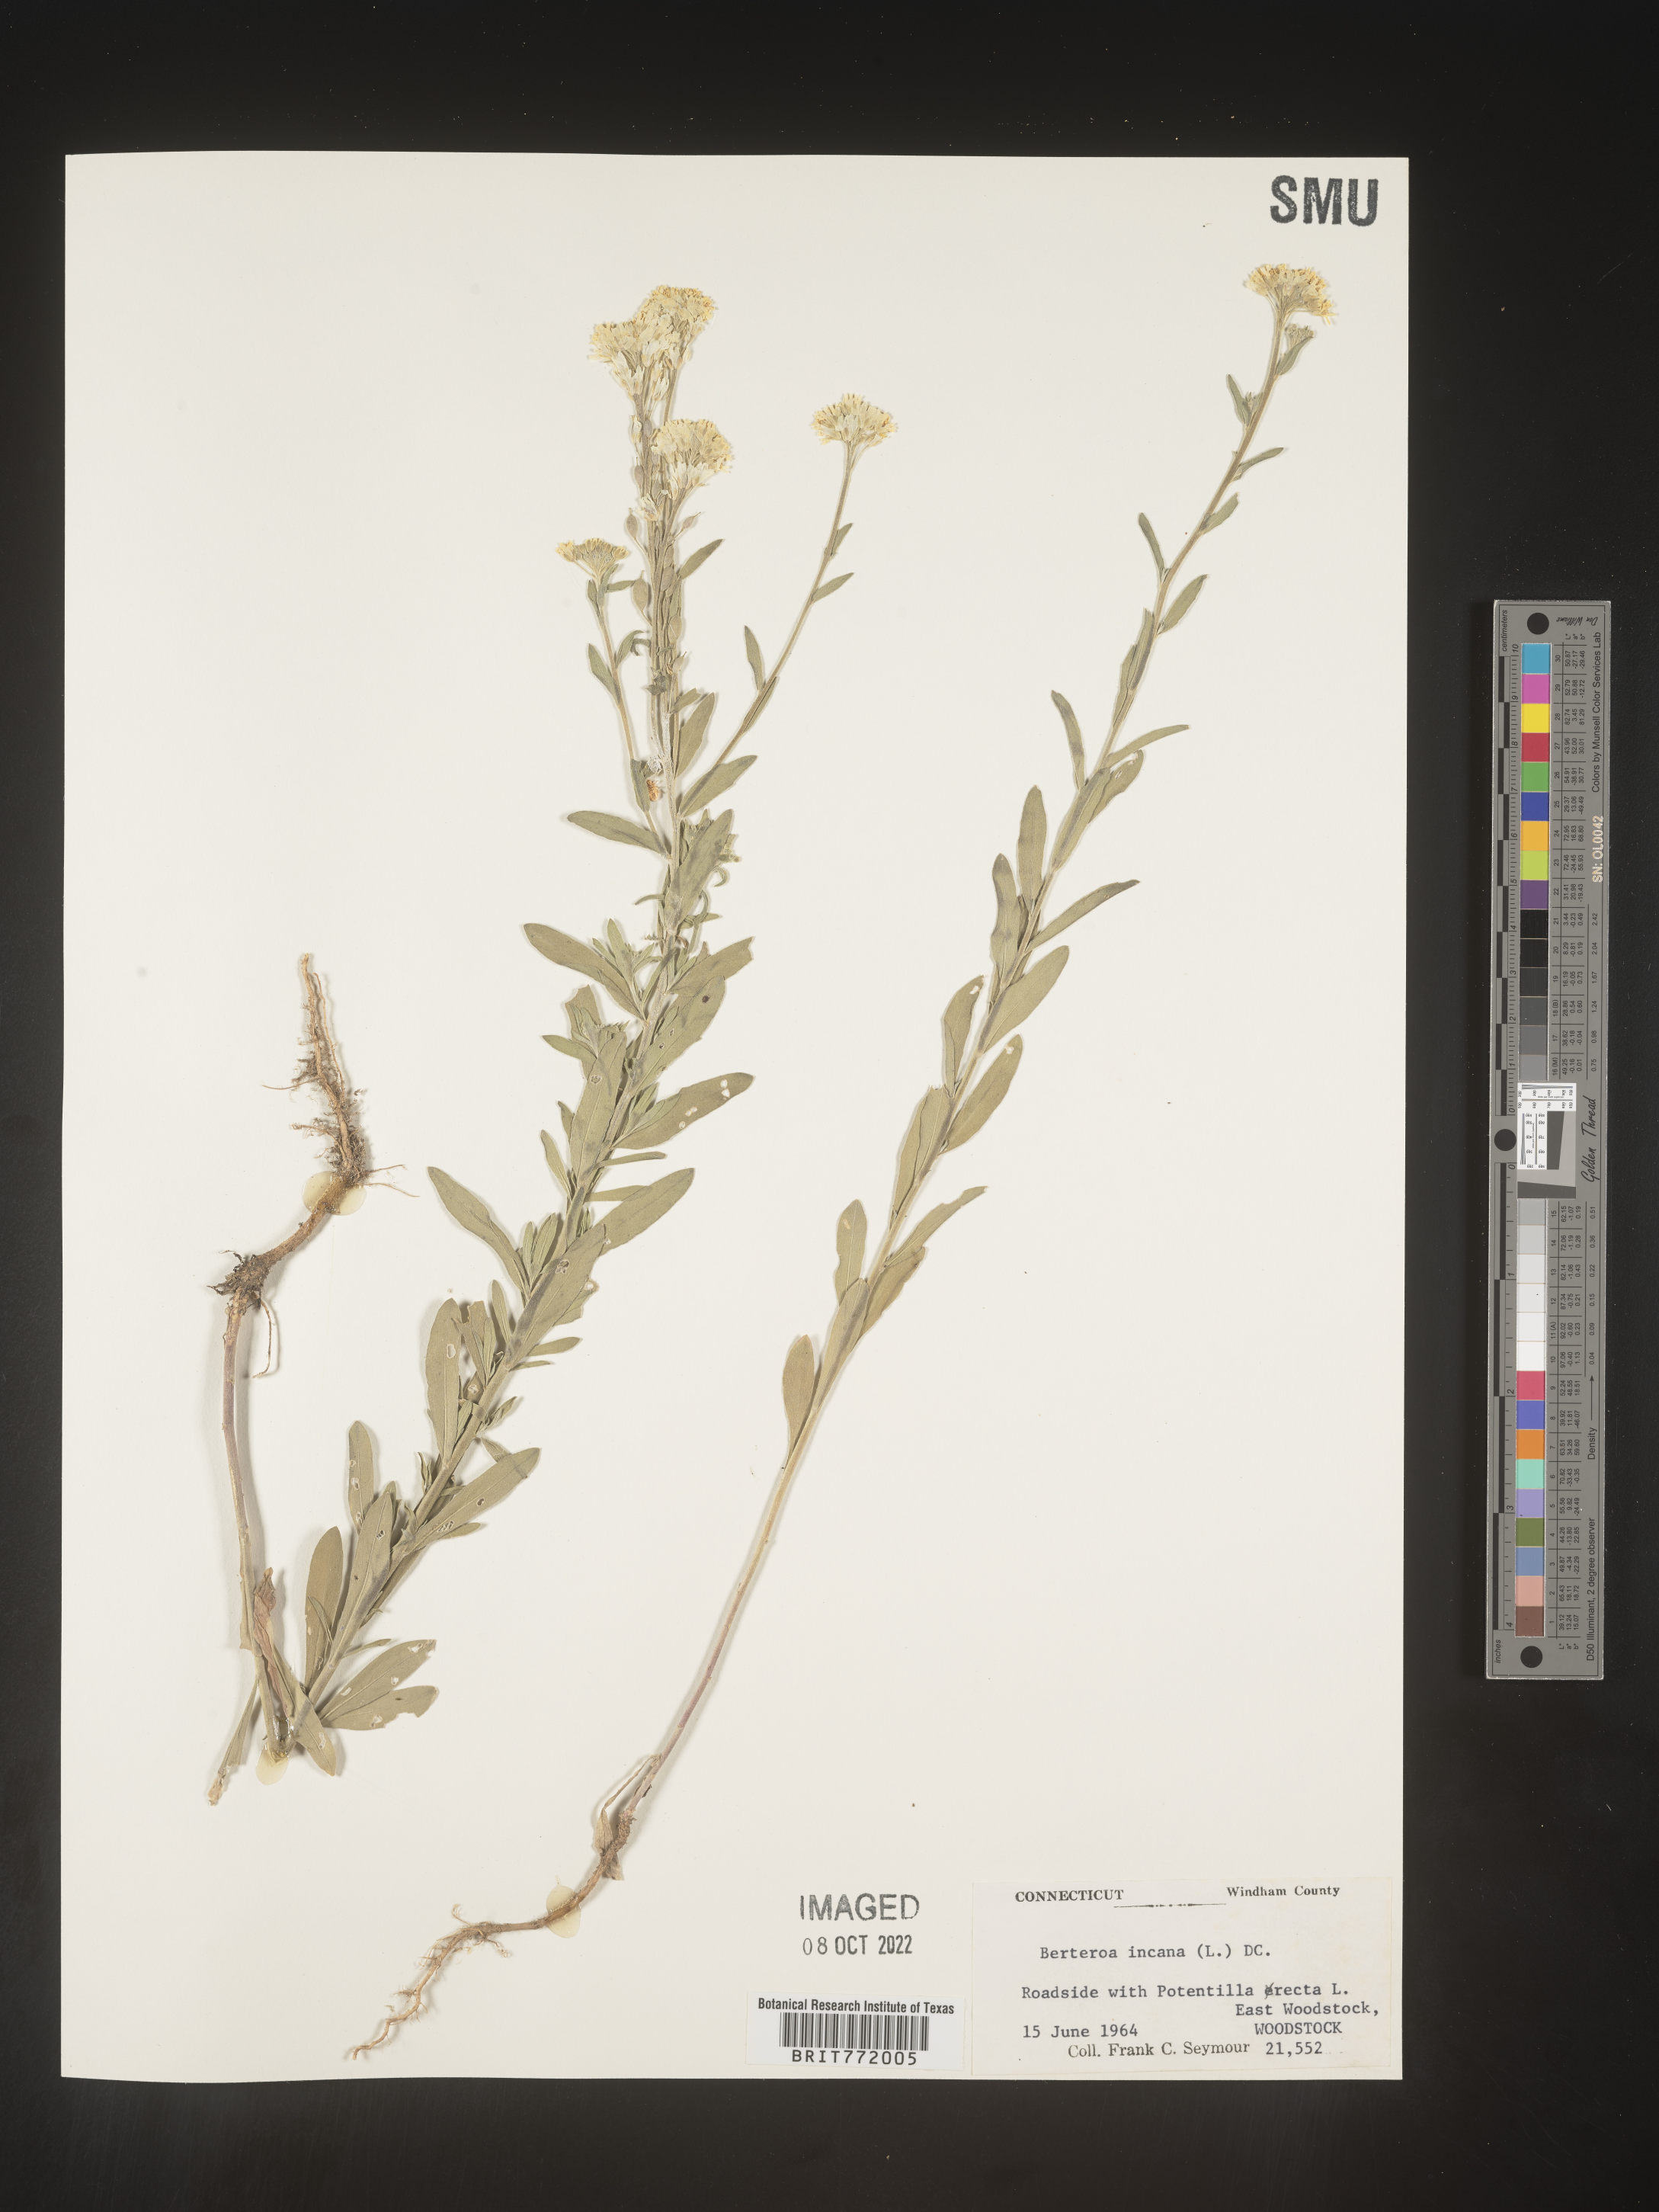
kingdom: Plantae
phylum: Tracheophyta
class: Magnoliopsida
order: Brassicales
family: Brassicaceae
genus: Berteroa
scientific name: Berteroa incana
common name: Hoary alison
